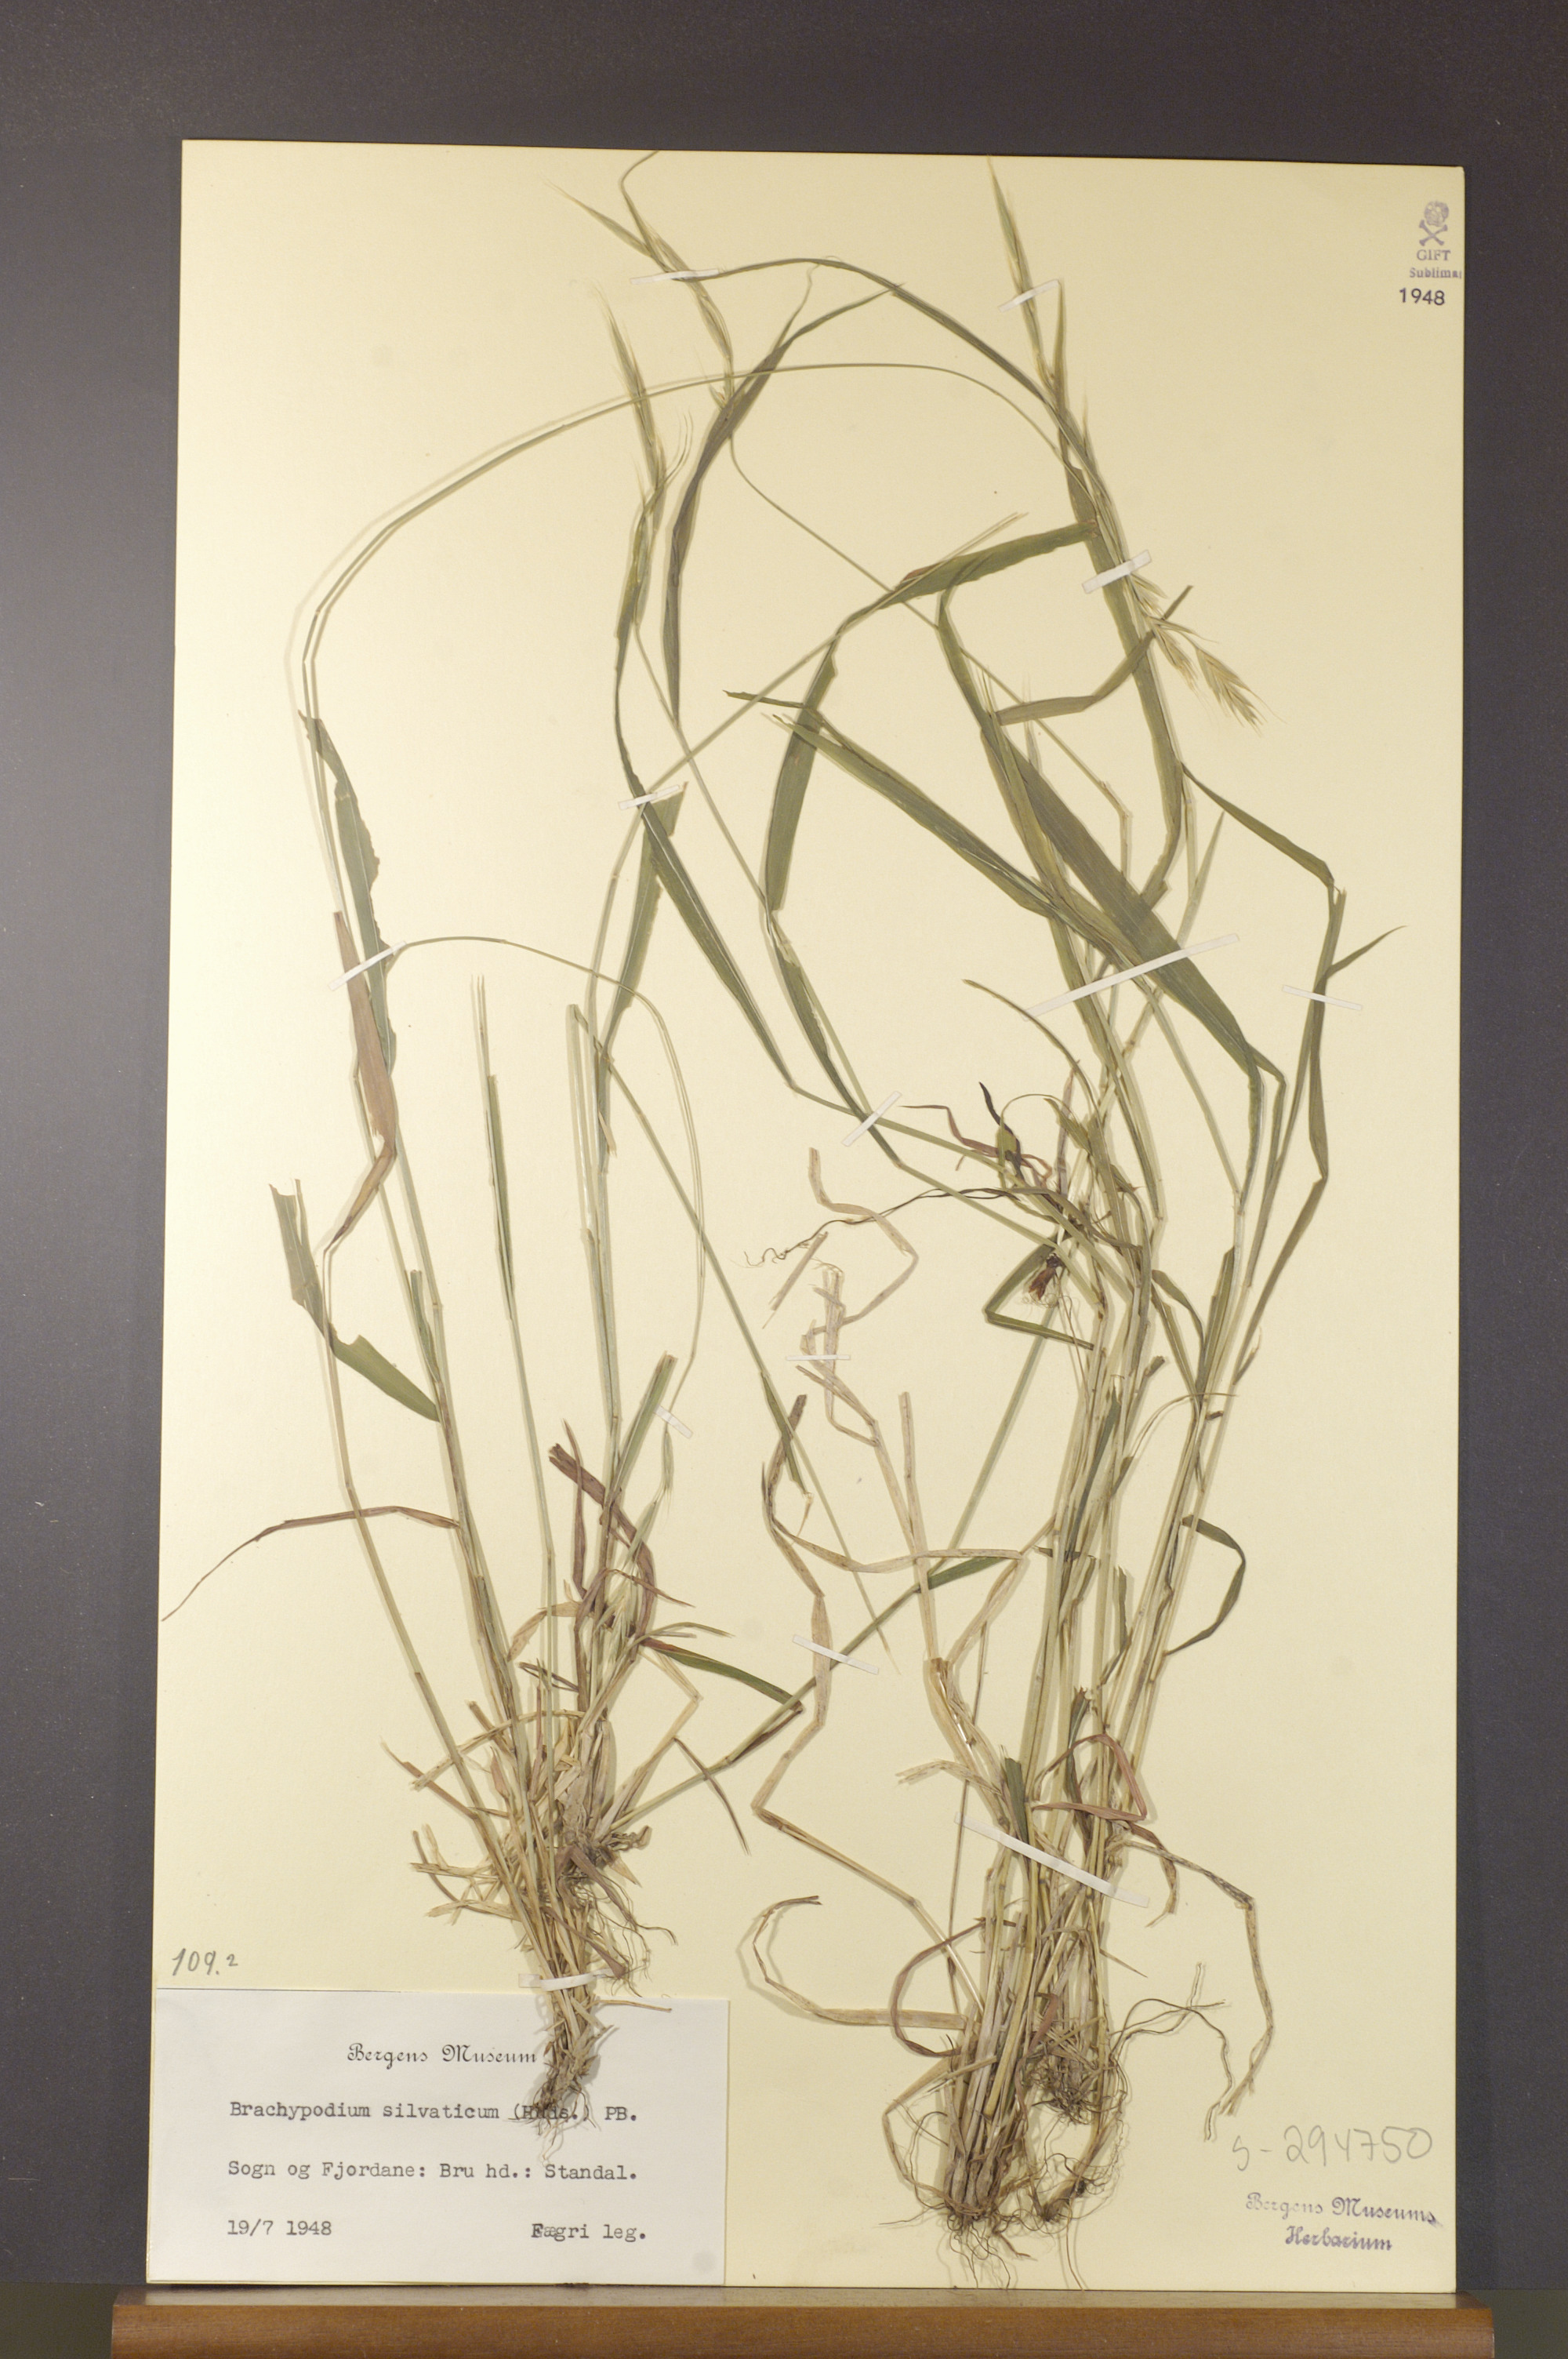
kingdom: Plantae
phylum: Tracheophyta
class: Liliopsida
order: Poales
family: Poaceae
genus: Brachypodium
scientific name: Brachypodium sylvaticum
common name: False-brome
